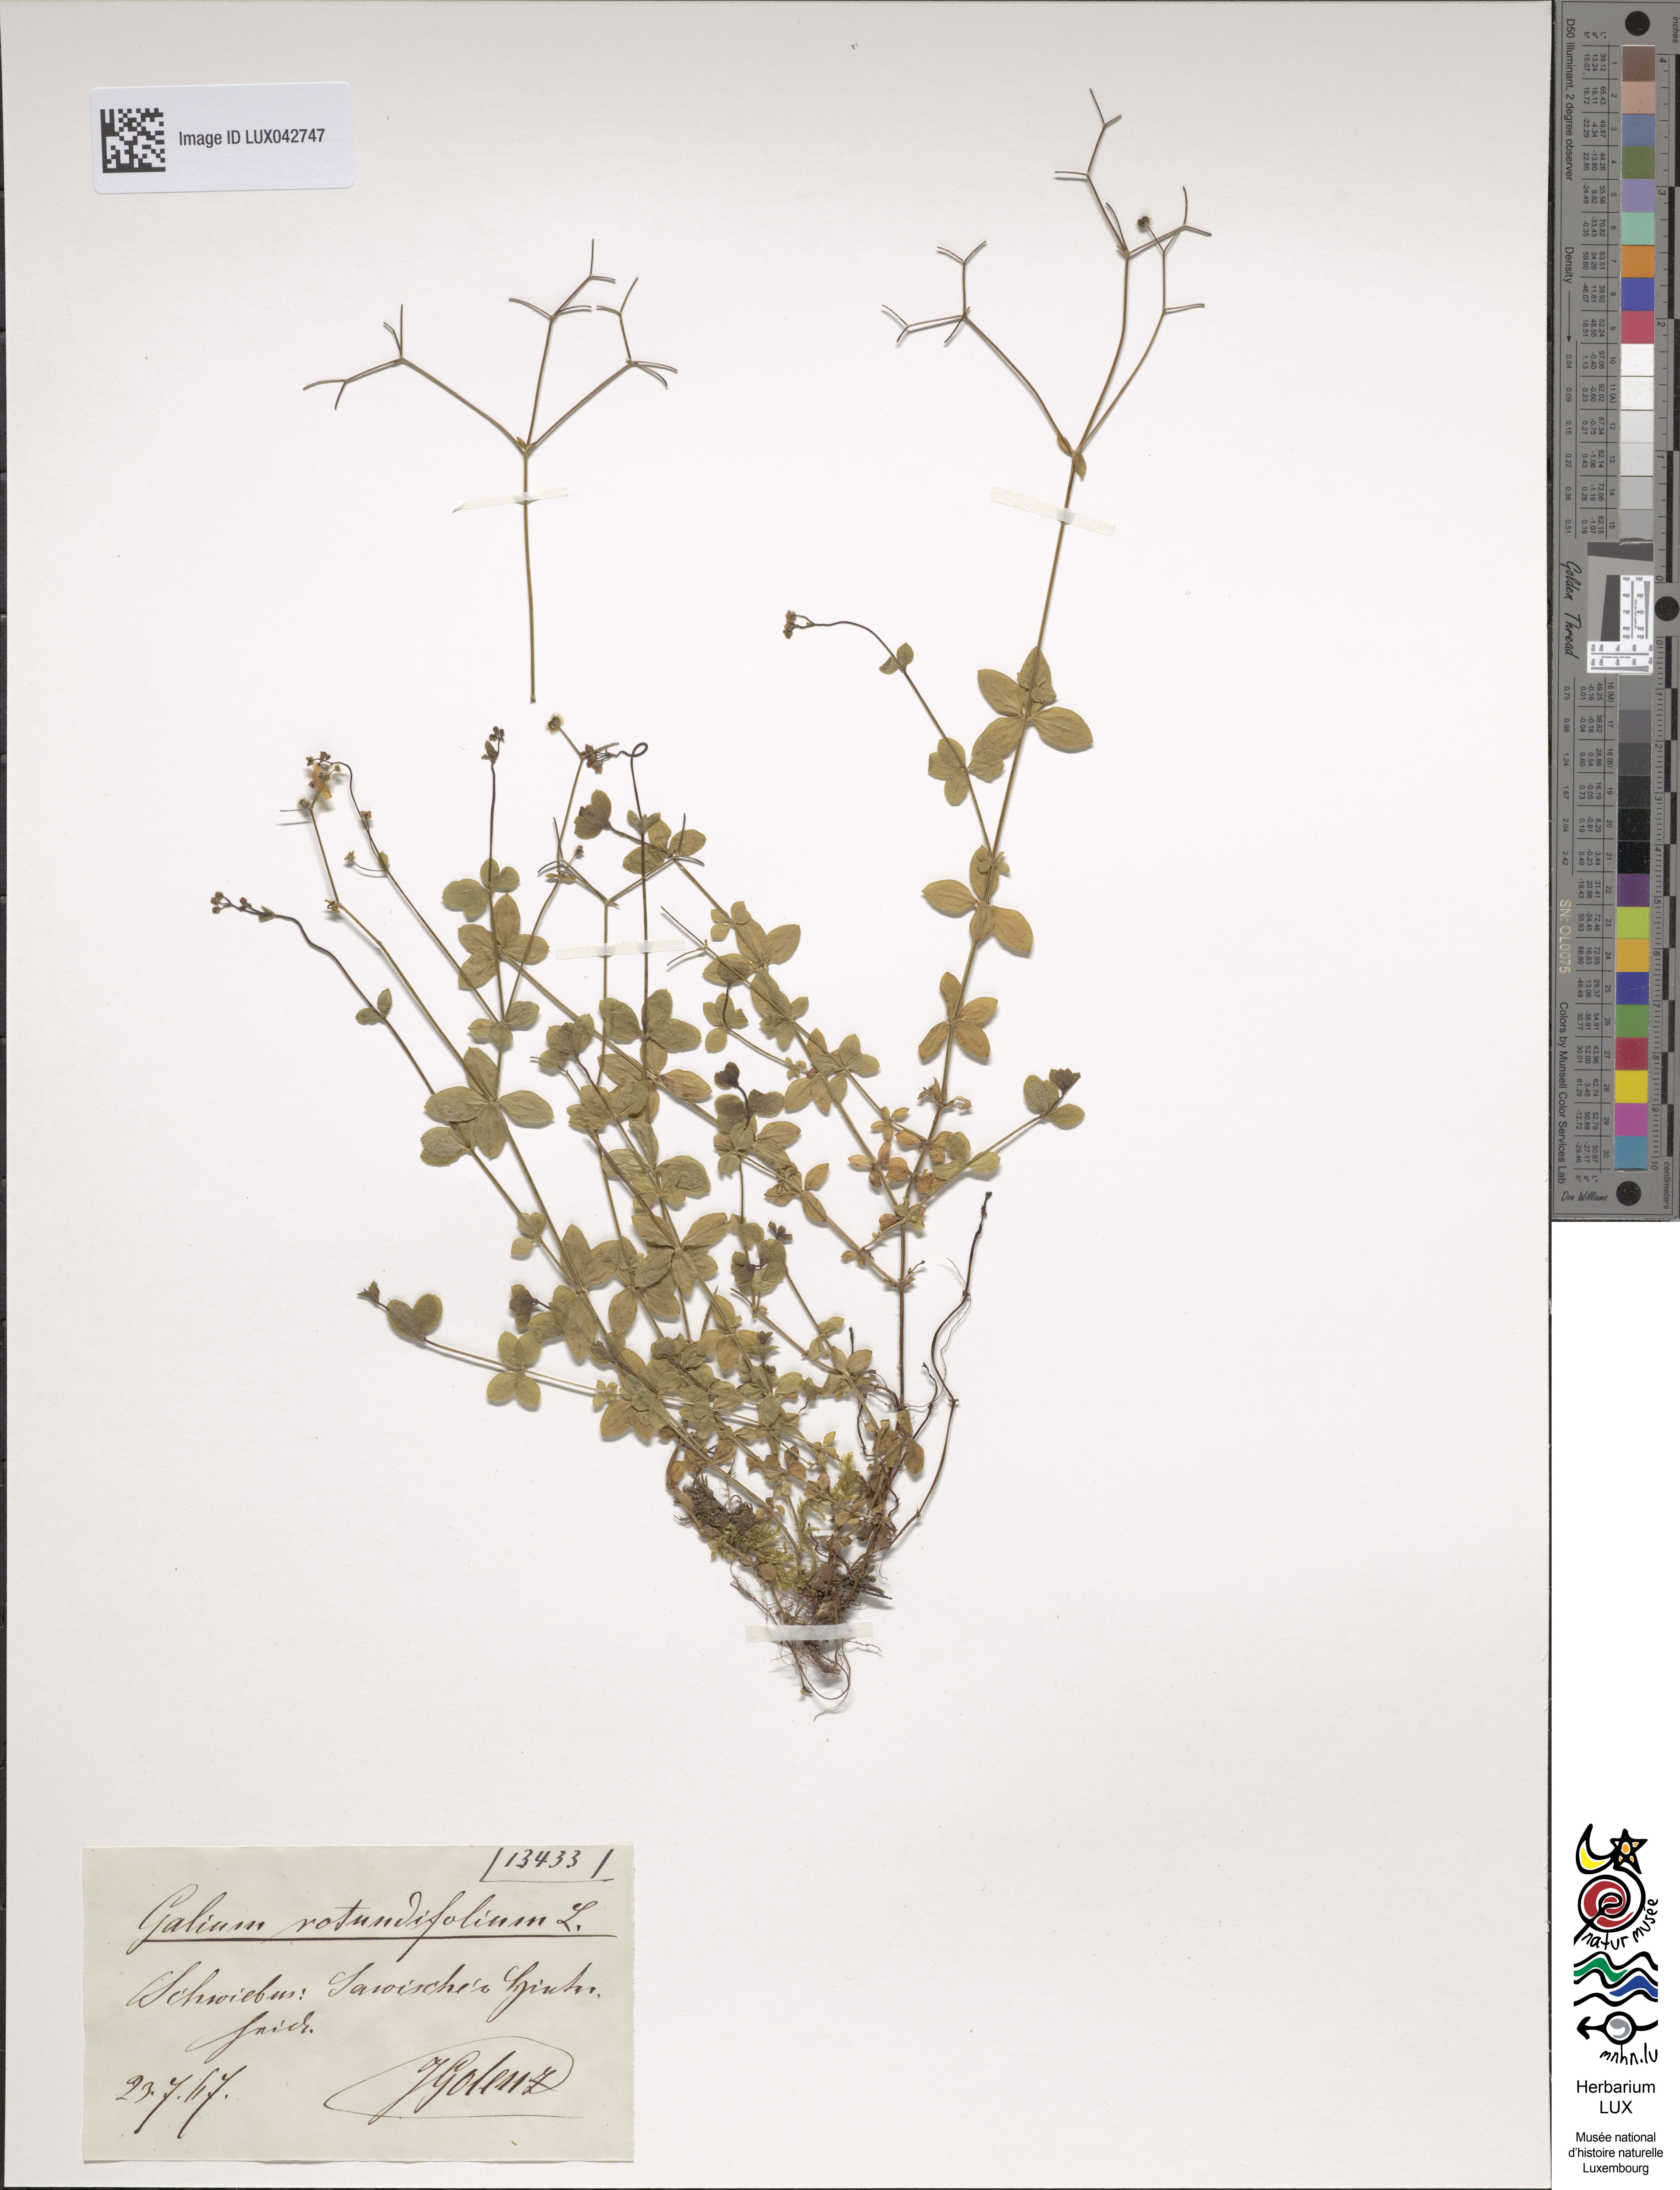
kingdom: Plantae
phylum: Tracheophyta
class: Magnoliopsida
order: Gentianales
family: Rubiaceae
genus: Galium
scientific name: Galium rotundifolium
